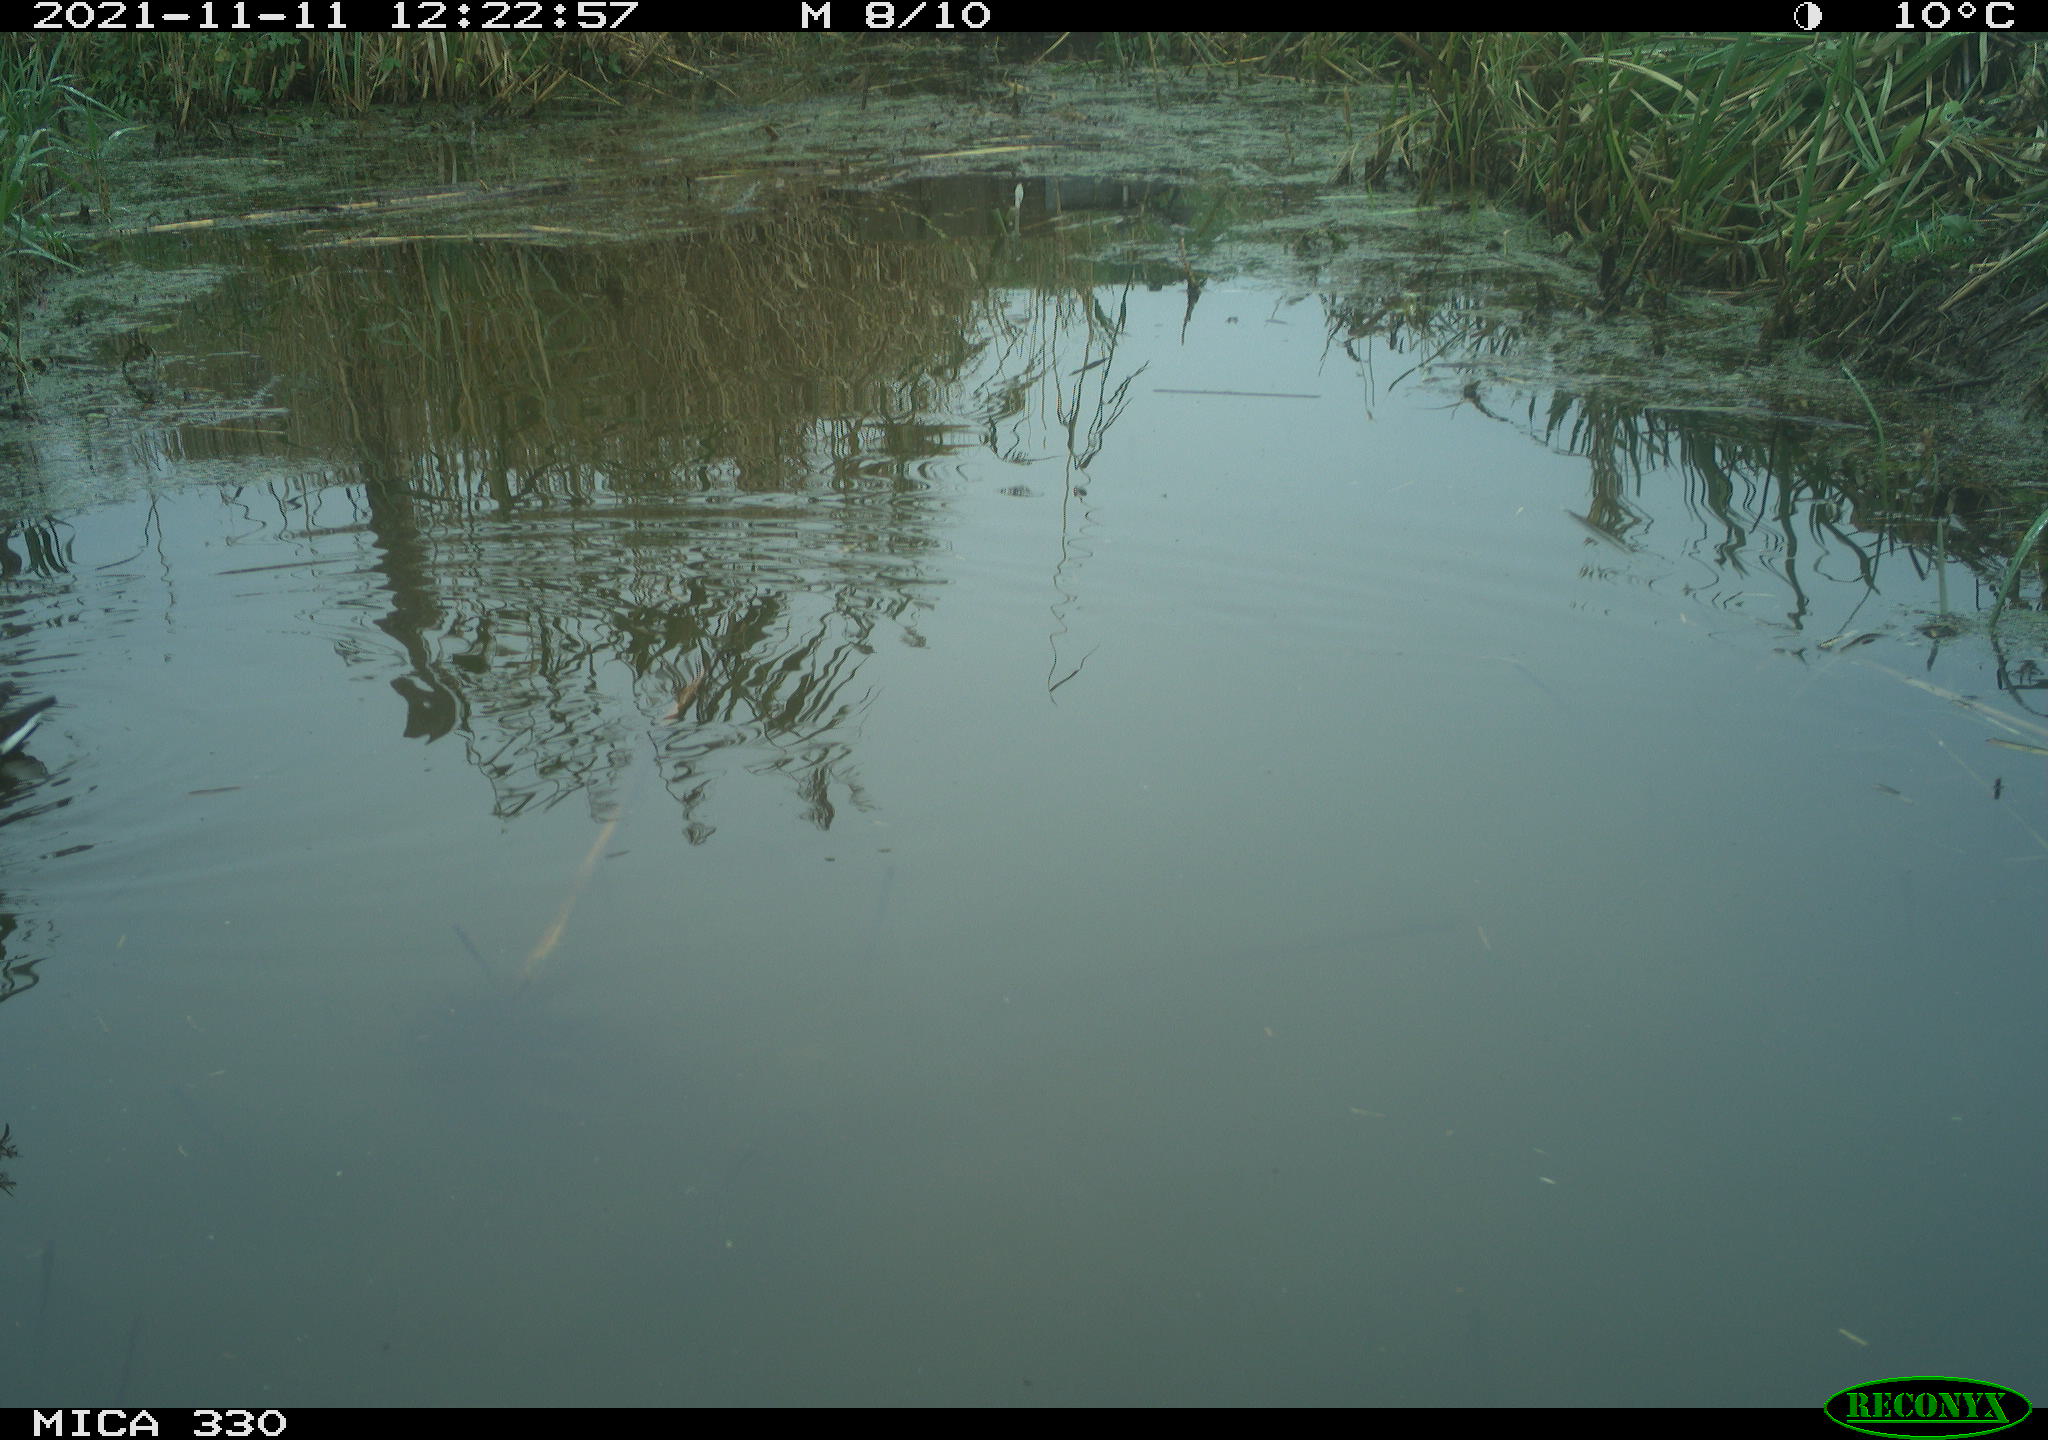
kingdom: Animalia
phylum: Chordata
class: Aves
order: Gruiformes
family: Rallidae
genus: Gallinula
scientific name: Gallinula chloropus
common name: Common moorhen
